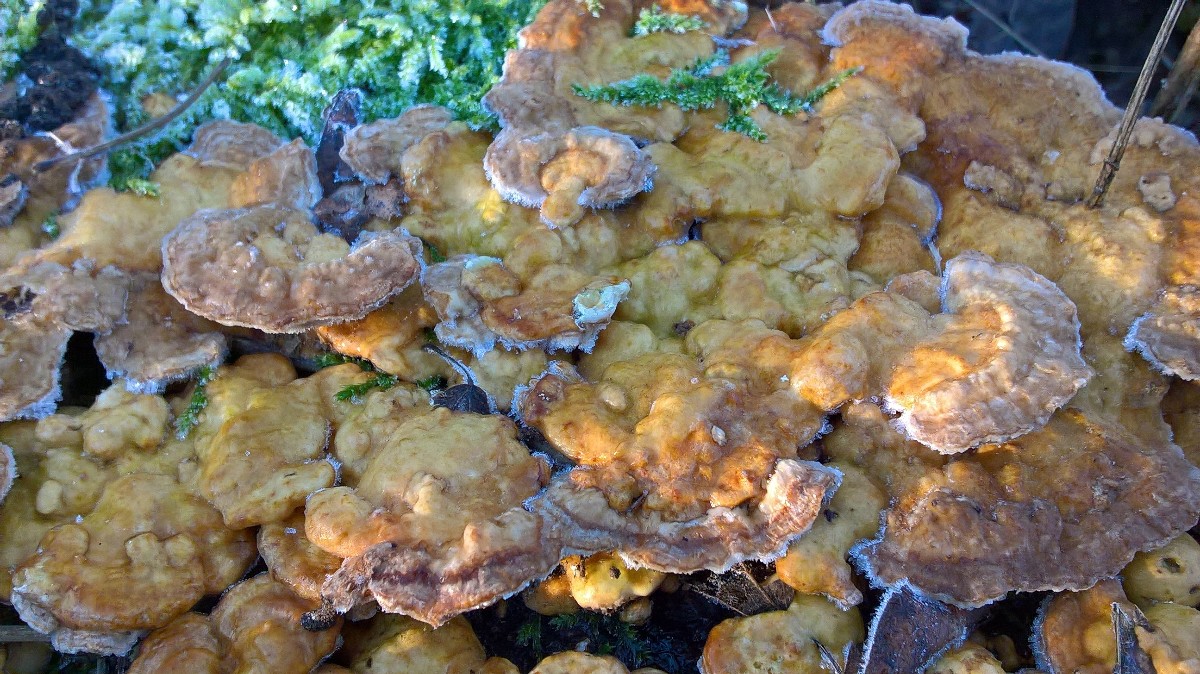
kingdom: Fungi
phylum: Basidiomycota
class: Agaricomycetes
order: Polyporales
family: Polyporaceae
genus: Trametes
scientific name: Trametes ochracea
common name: bæltet læderporesvamp
